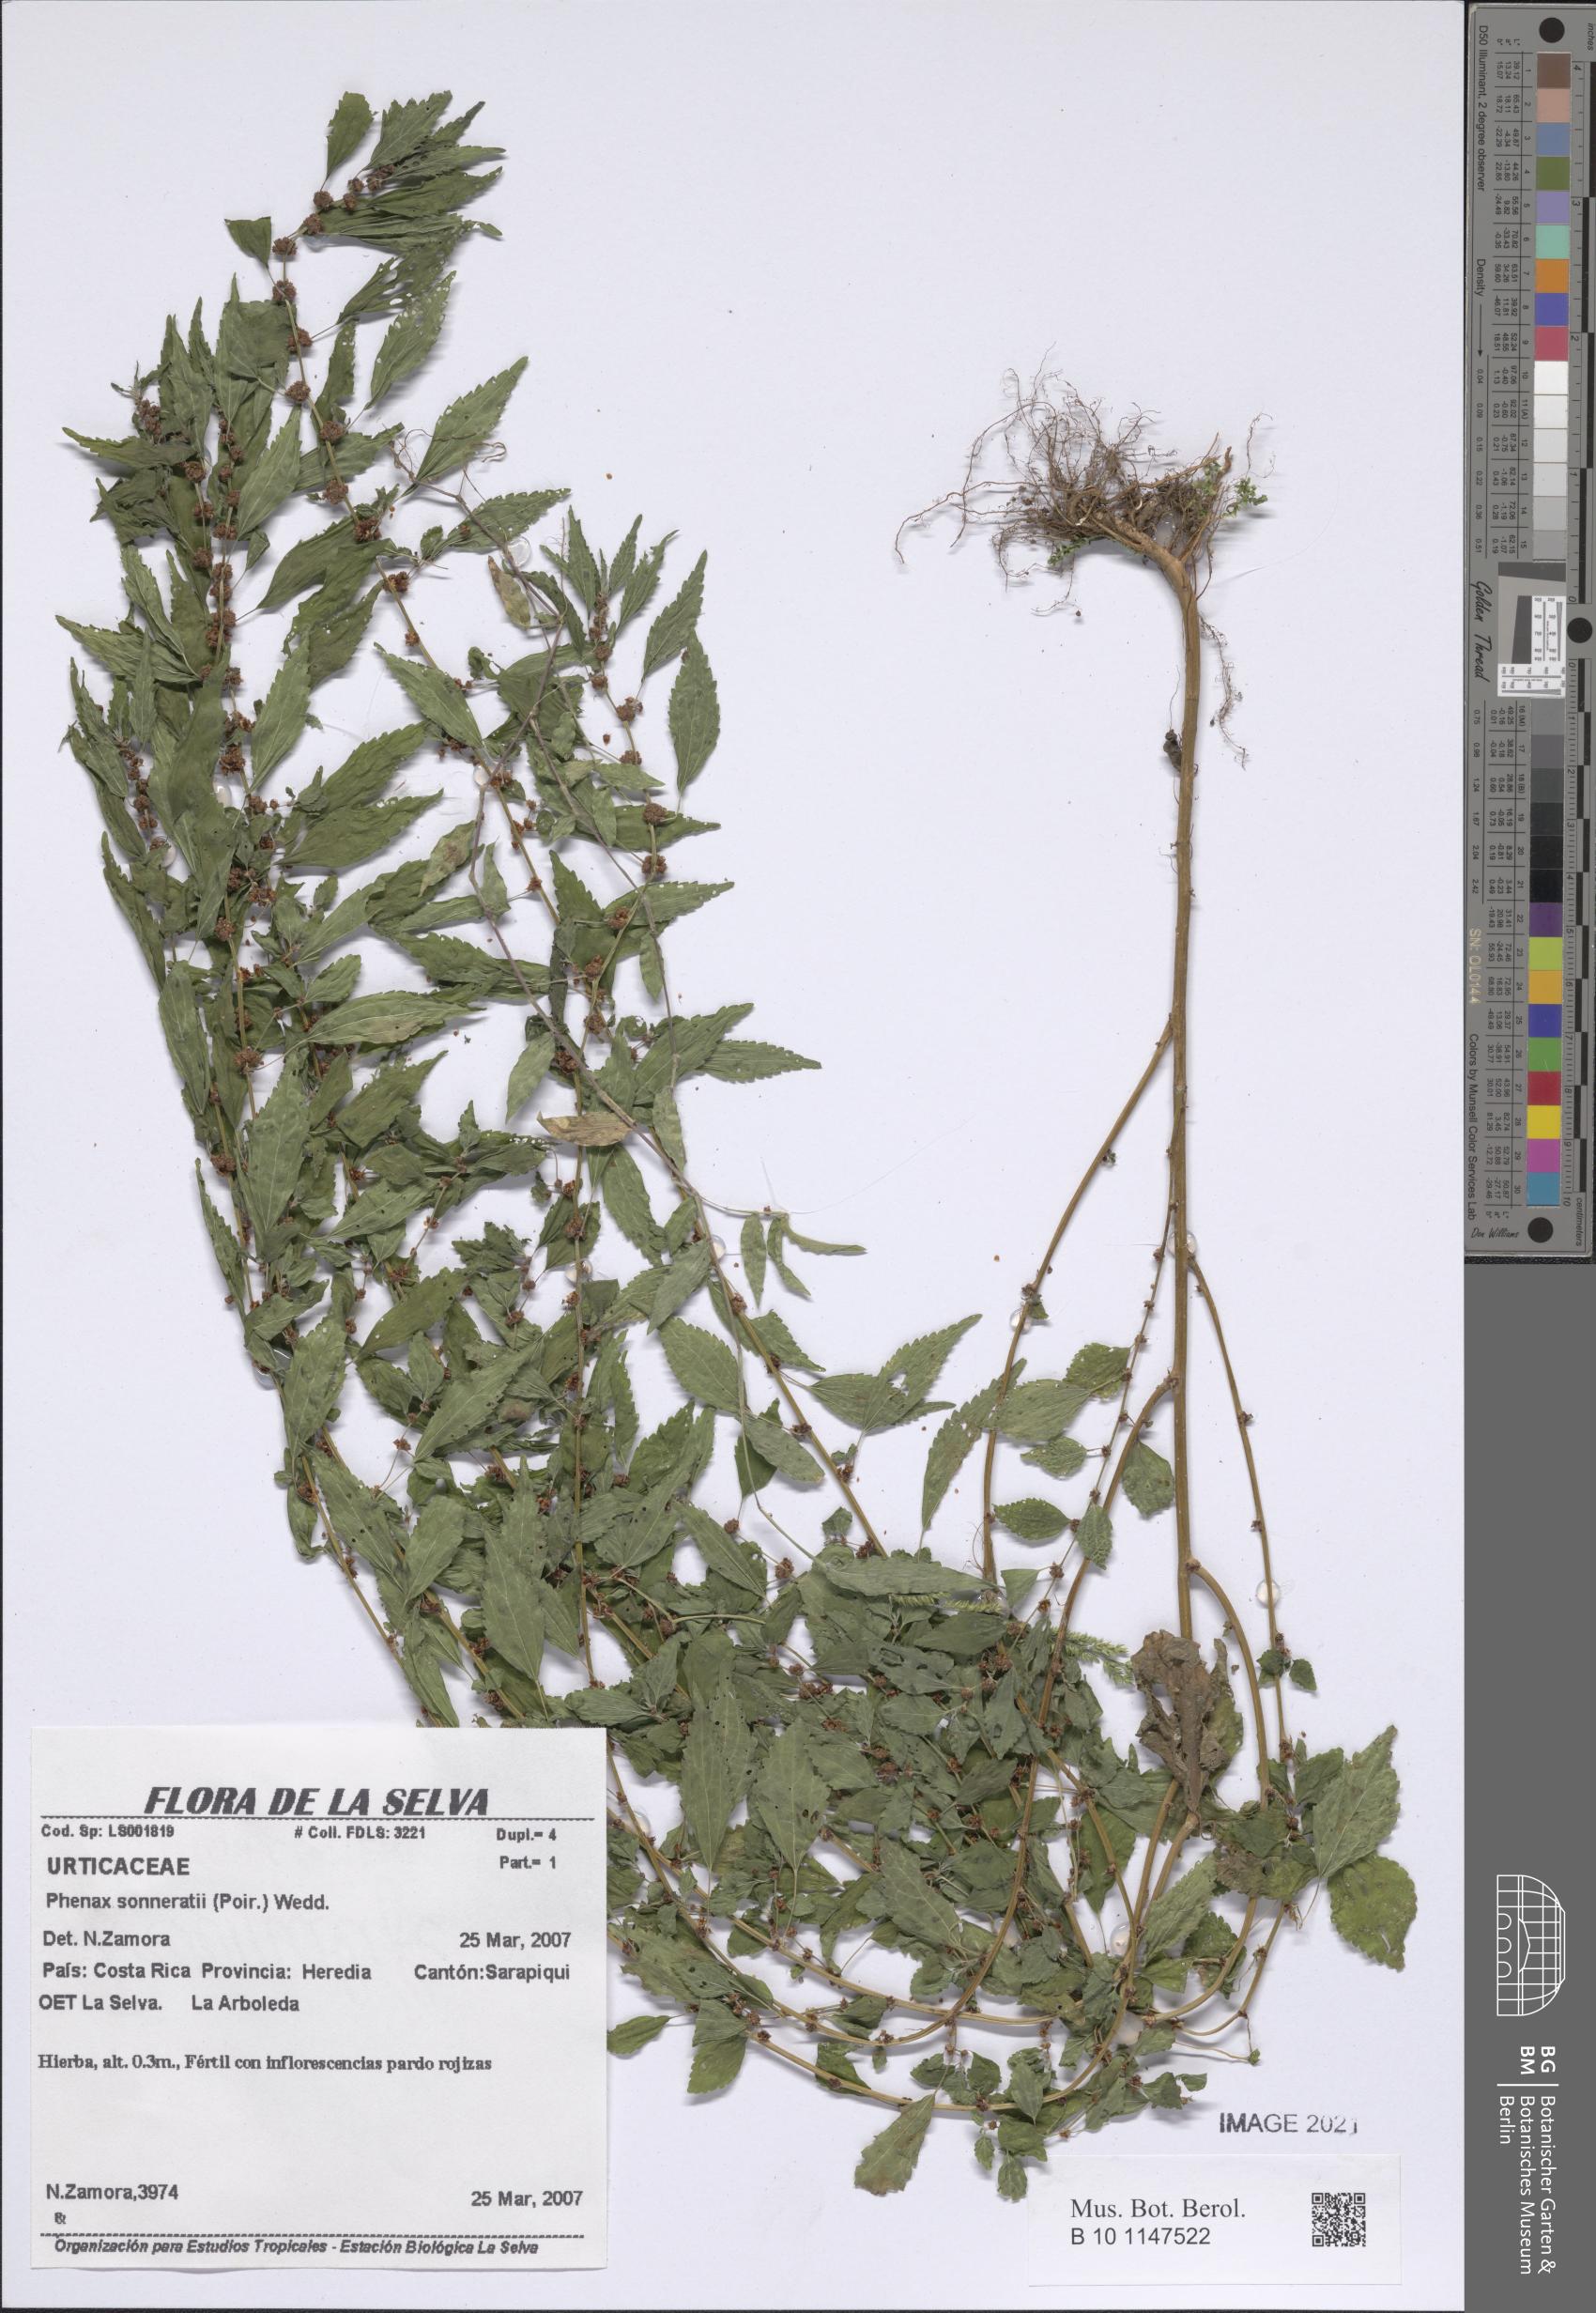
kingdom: Plantae
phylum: Tracheophyta
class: Magnoliopsida
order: Rosales
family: Urticaceae
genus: Phenax
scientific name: Phenax sonneratii
